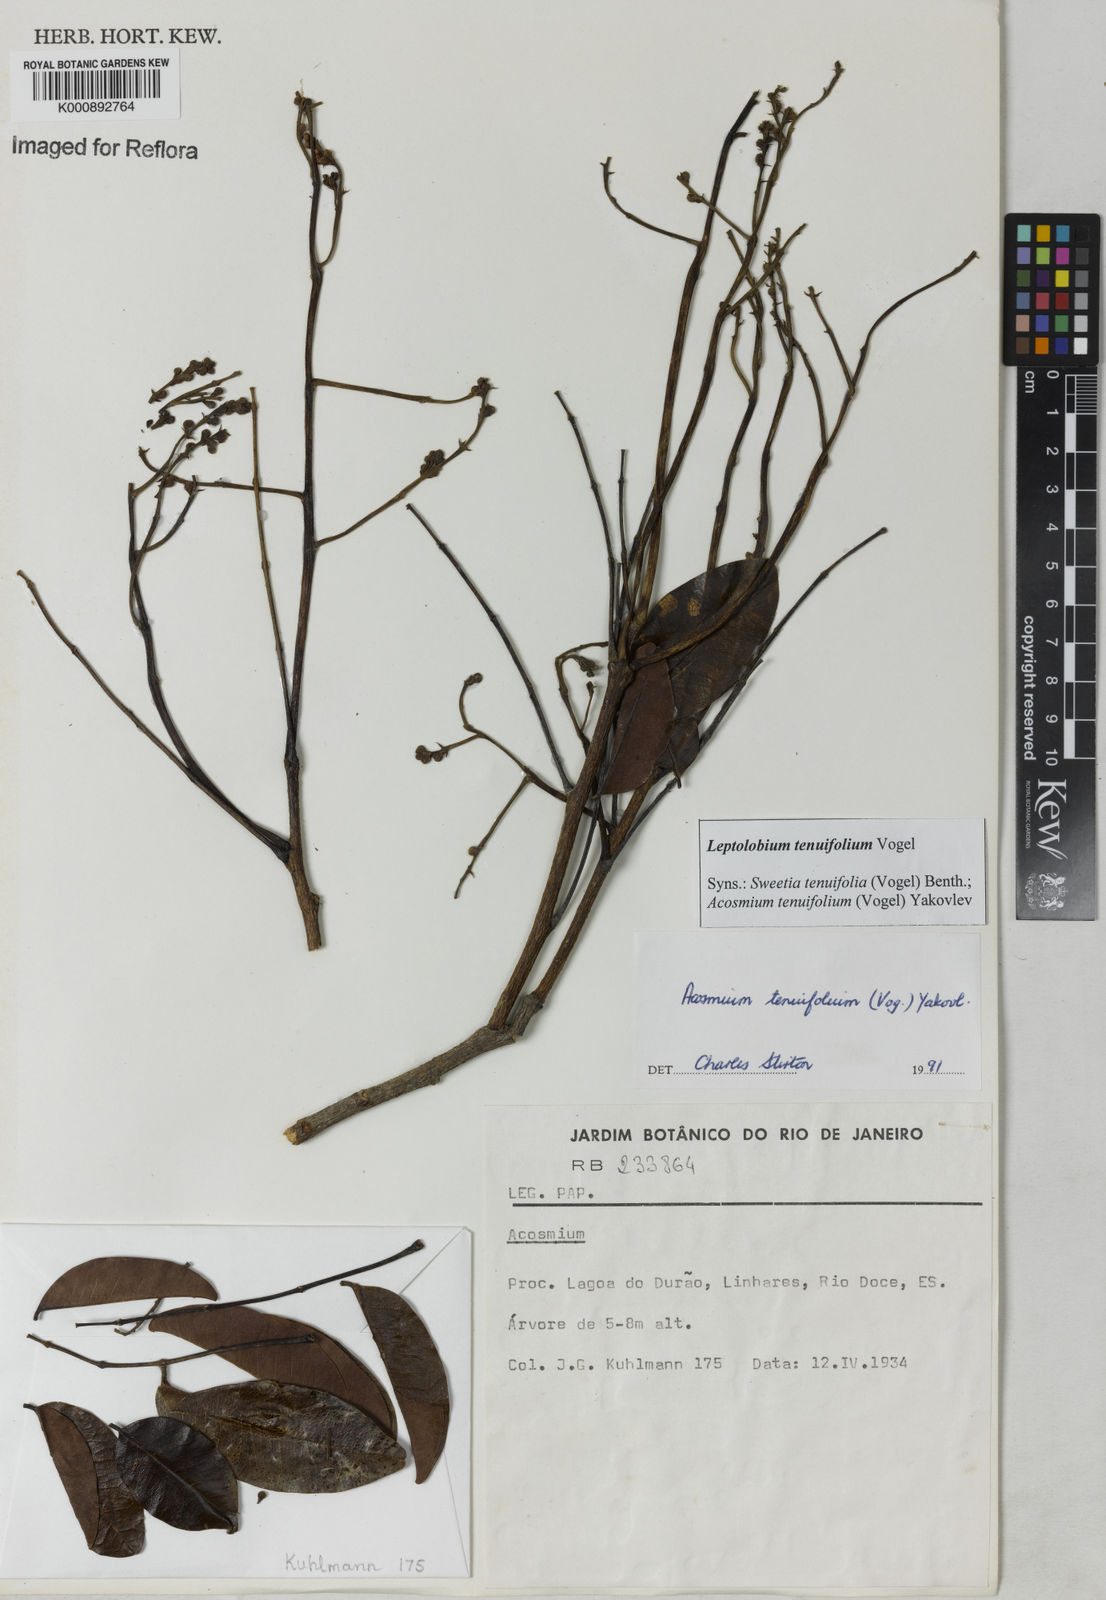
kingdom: Plantae
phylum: Tracheophyta
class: Magnoliopsida
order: Fabales
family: Fabaceae
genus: Leptolobium
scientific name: Leptolobium tenuifolium
